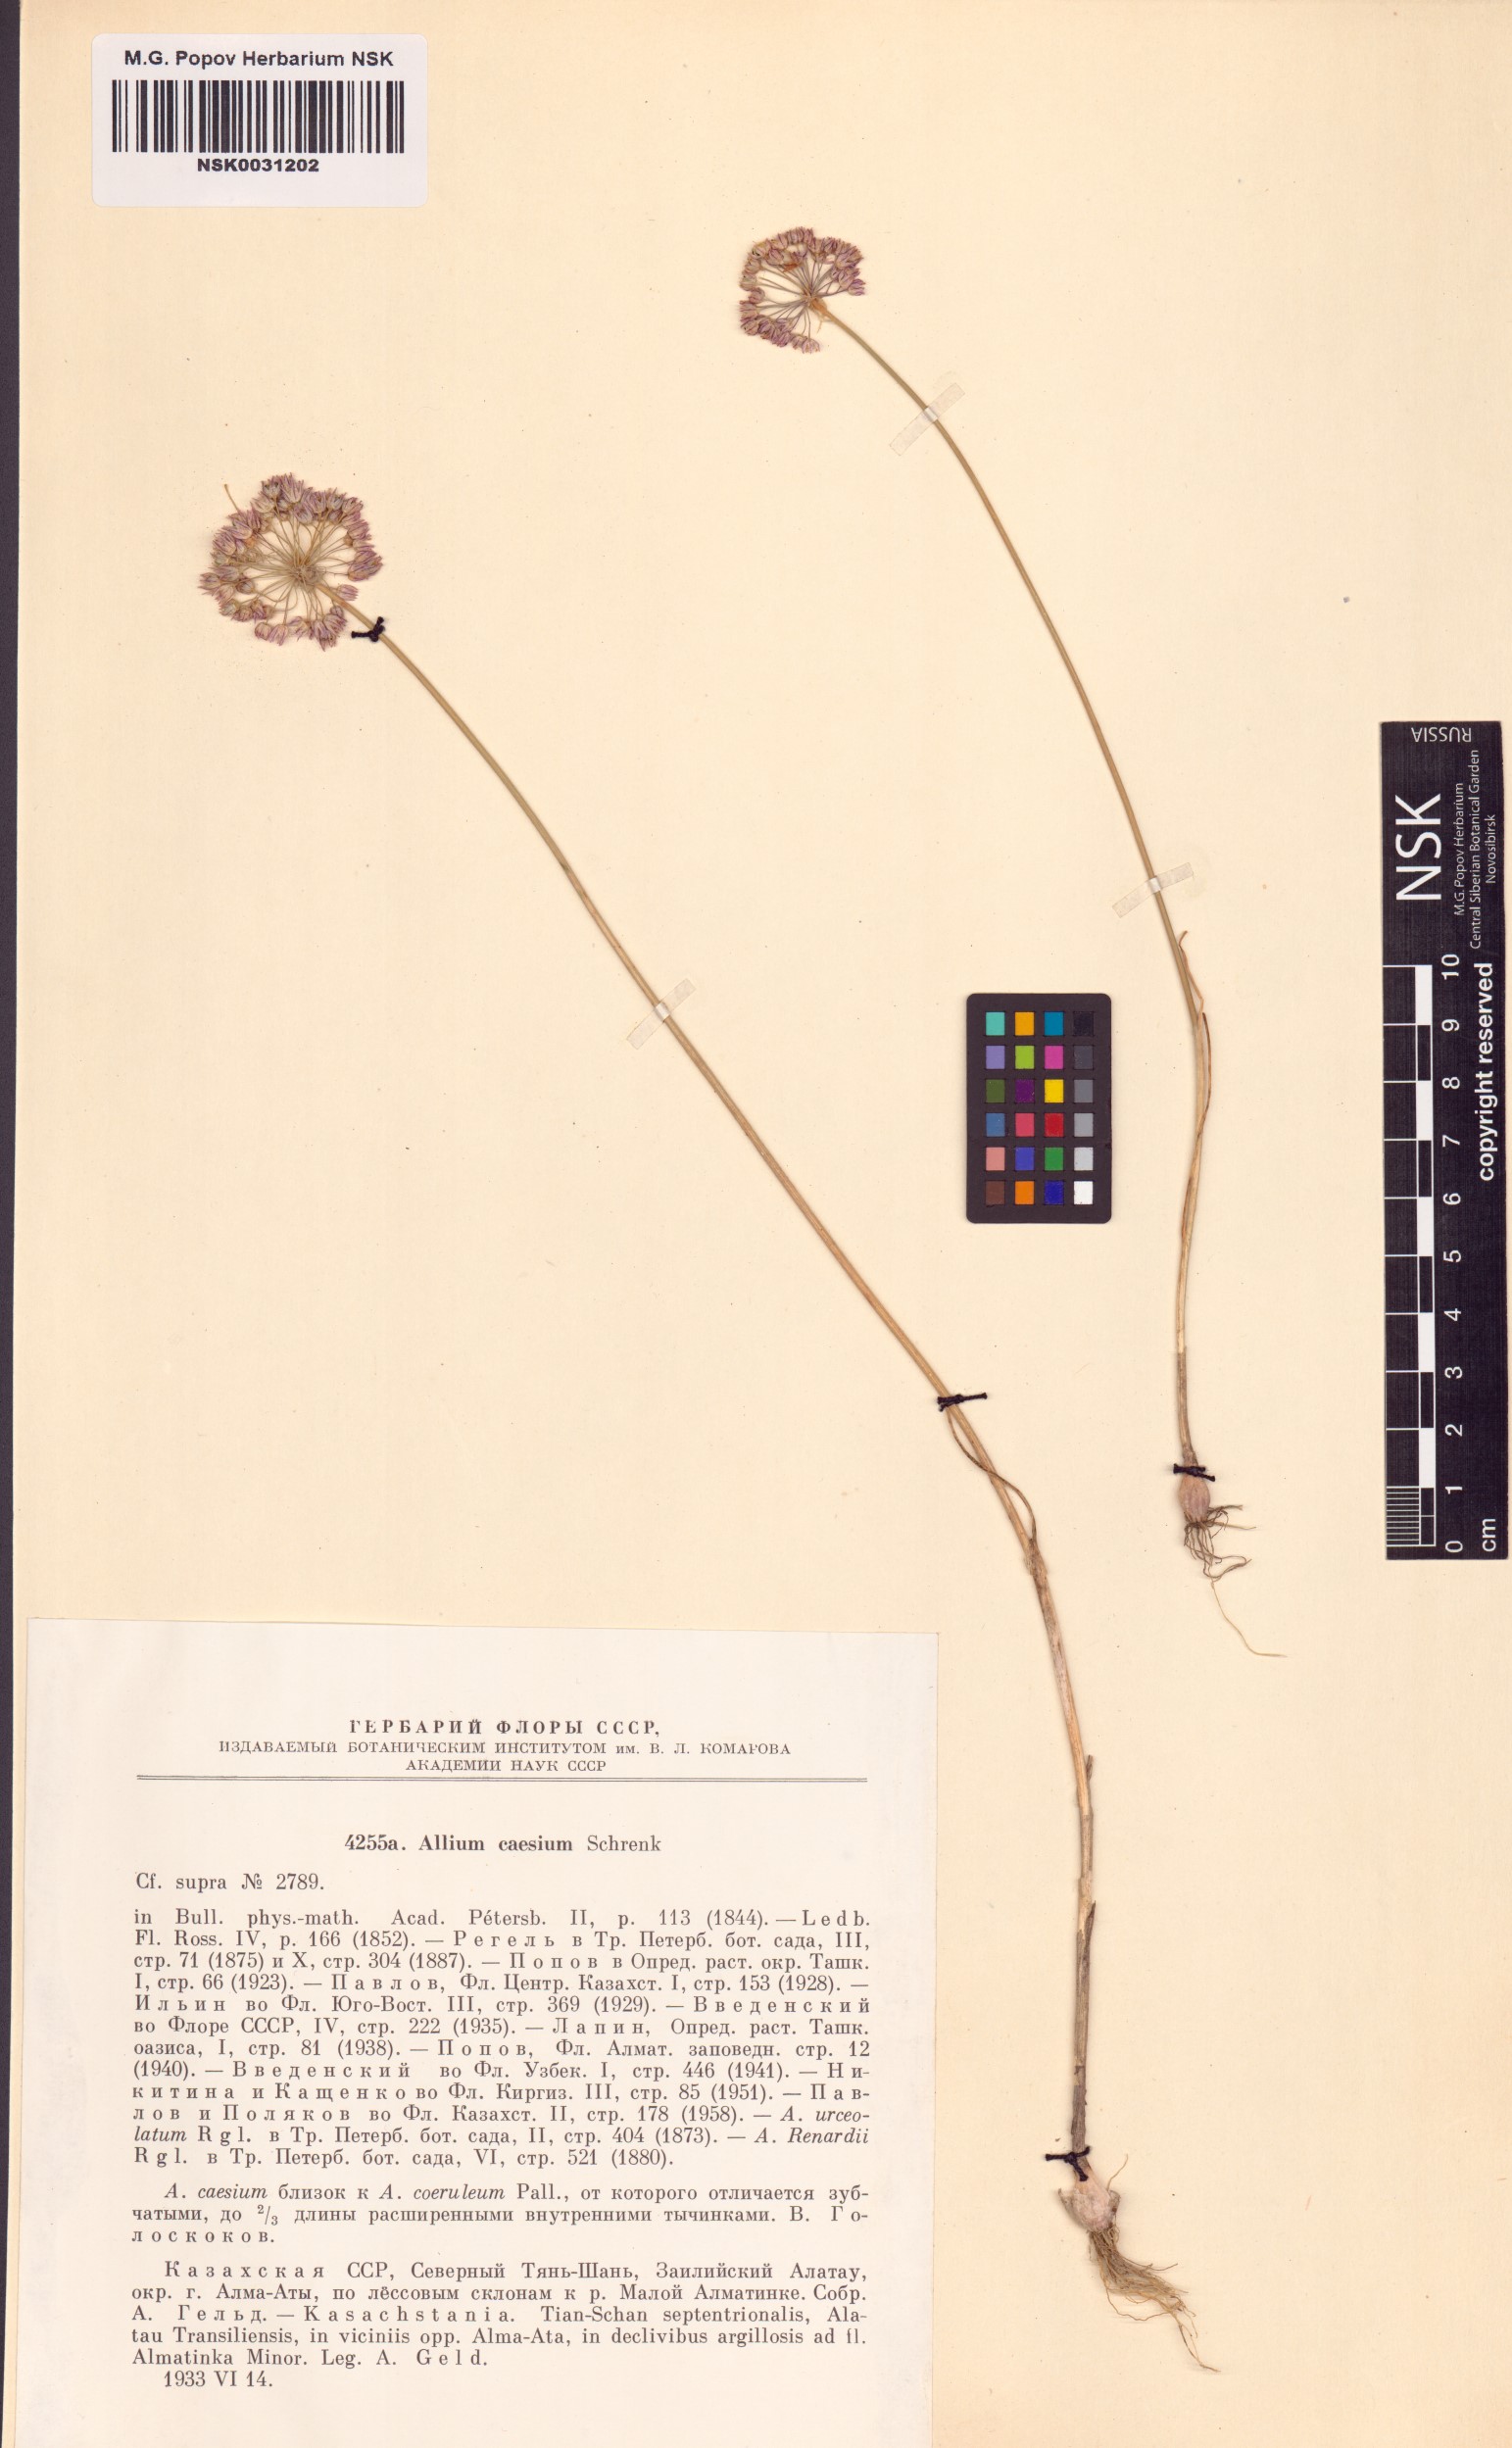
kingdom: Plantae
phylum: Tracheophyta
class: Liliopsida
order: Asparagales
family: Amaryllidaceae
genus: Allium
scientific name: Allium caesium
